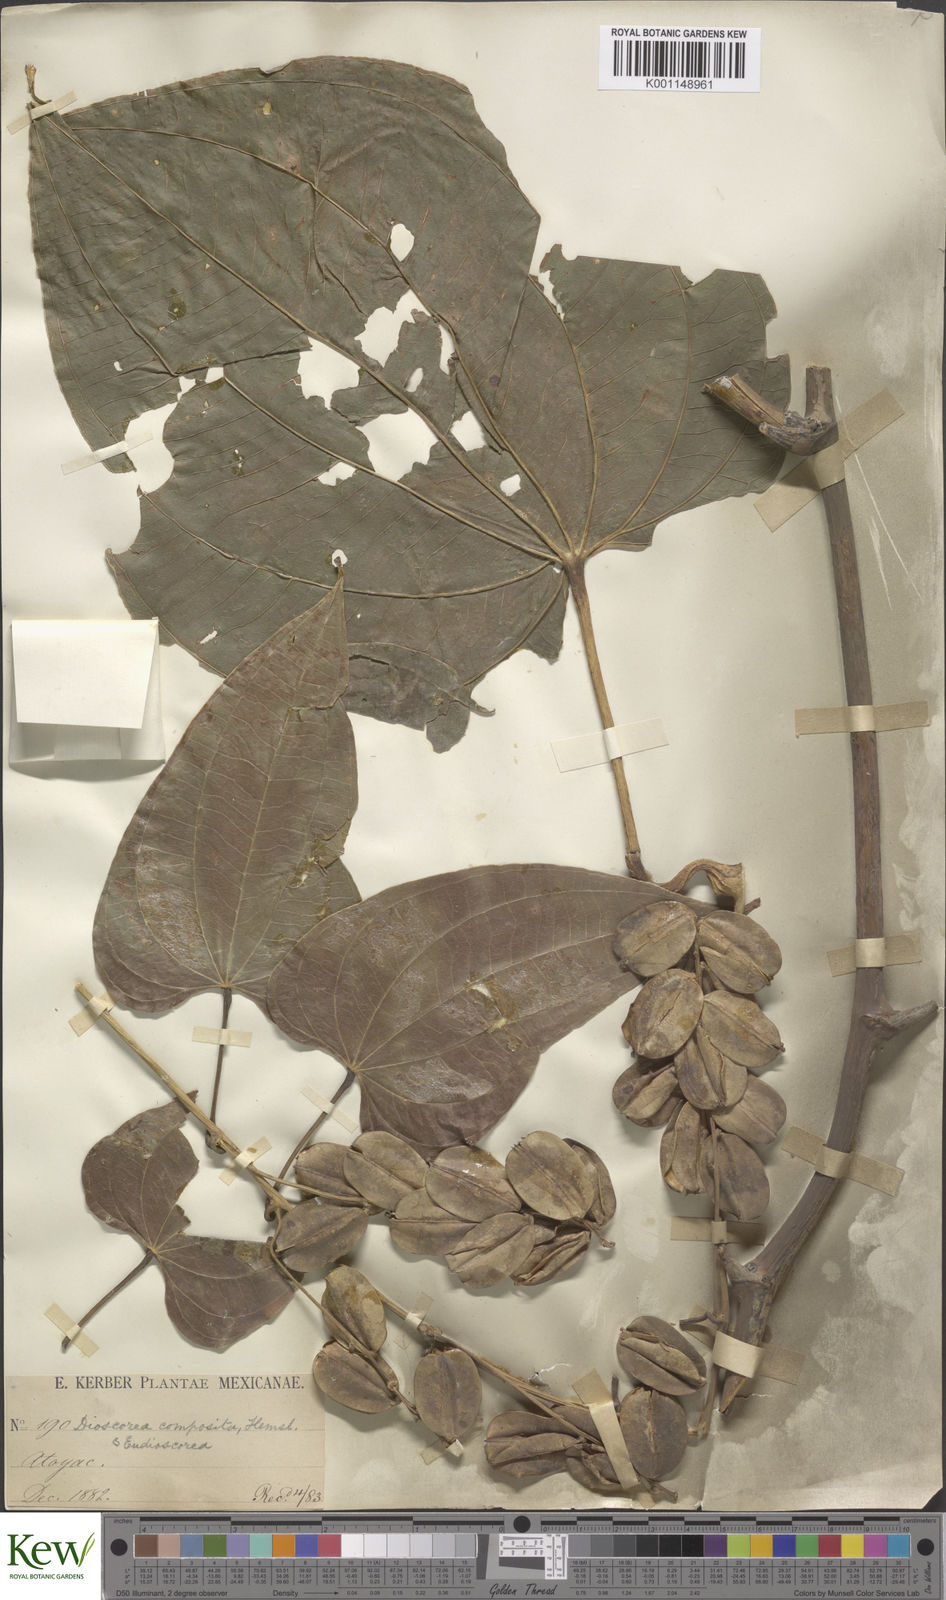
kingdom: Plantae
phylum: Tracheophyta
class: Liliopsida
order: Dioscoreales
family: Dioscoreaceae
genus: Dioscorea
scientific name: Dioscorea mexicana
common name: Mexican yam
